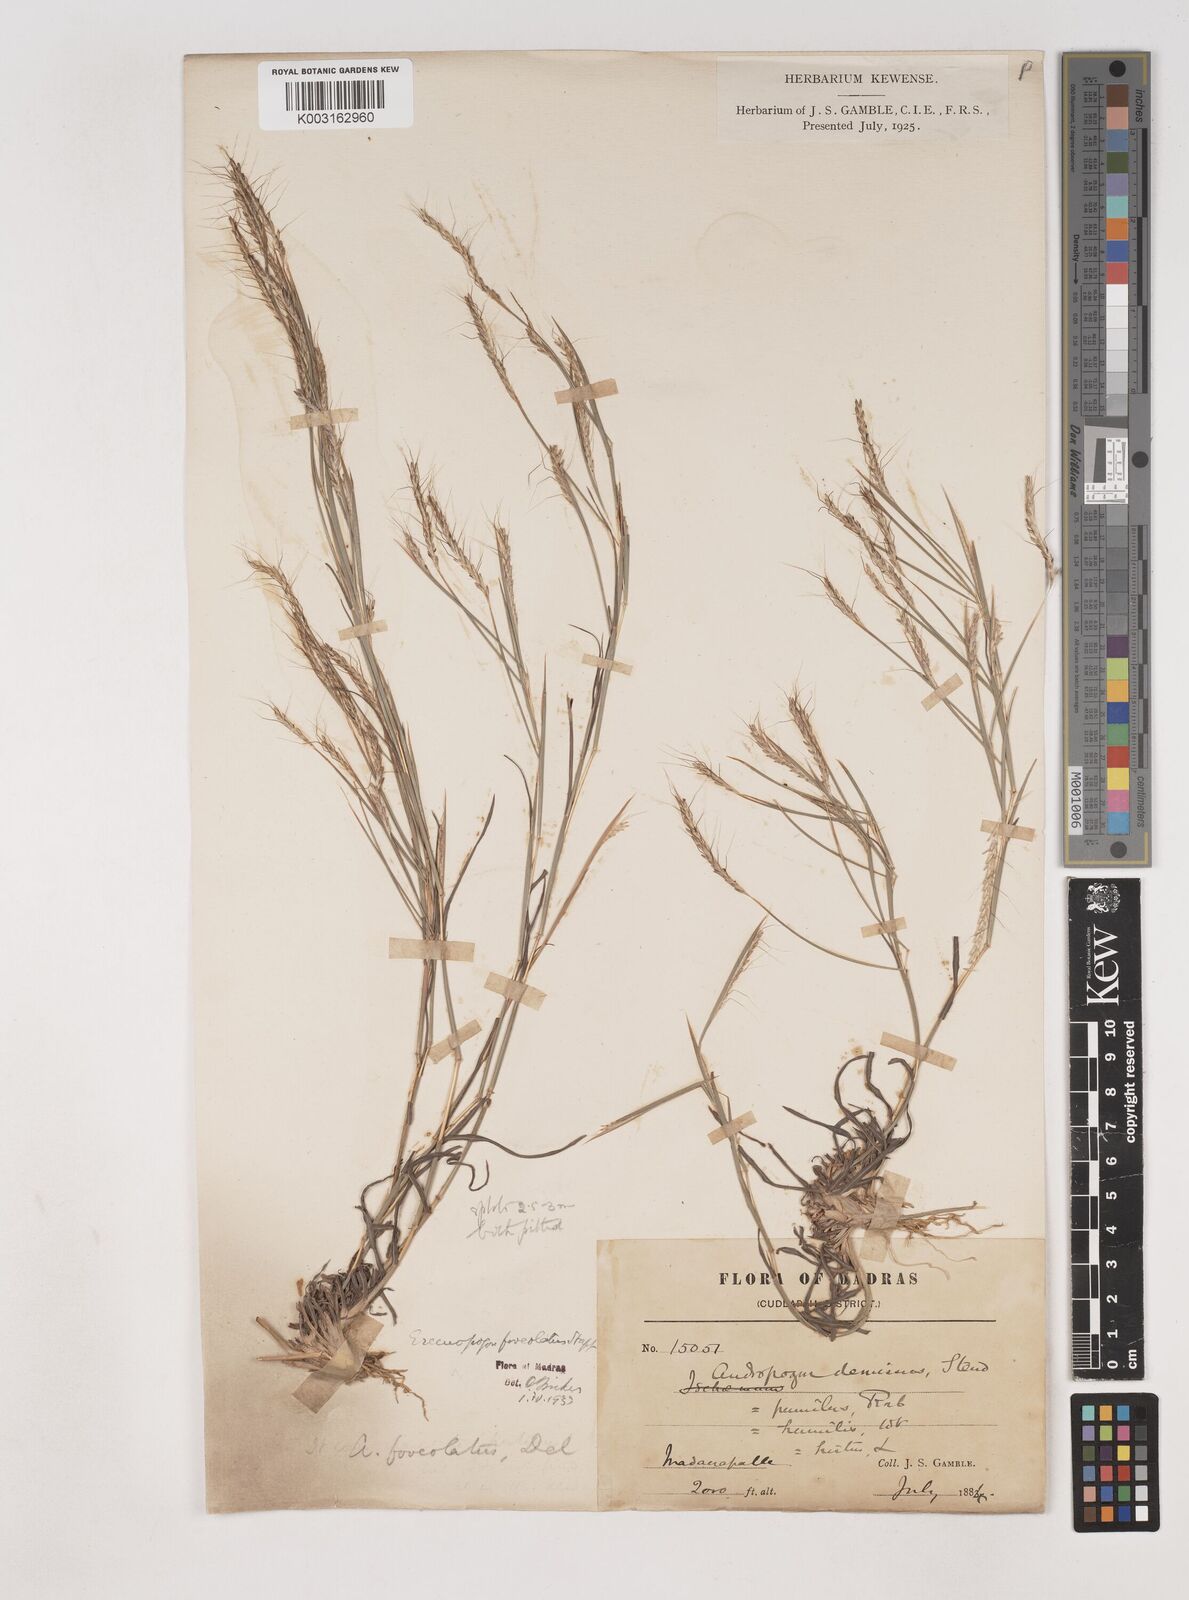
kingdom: Plantae
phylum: Tracheophyta
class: Liliopsida
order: Poales
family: Poaceae
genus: Dichanthium
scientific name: Dichanthium
